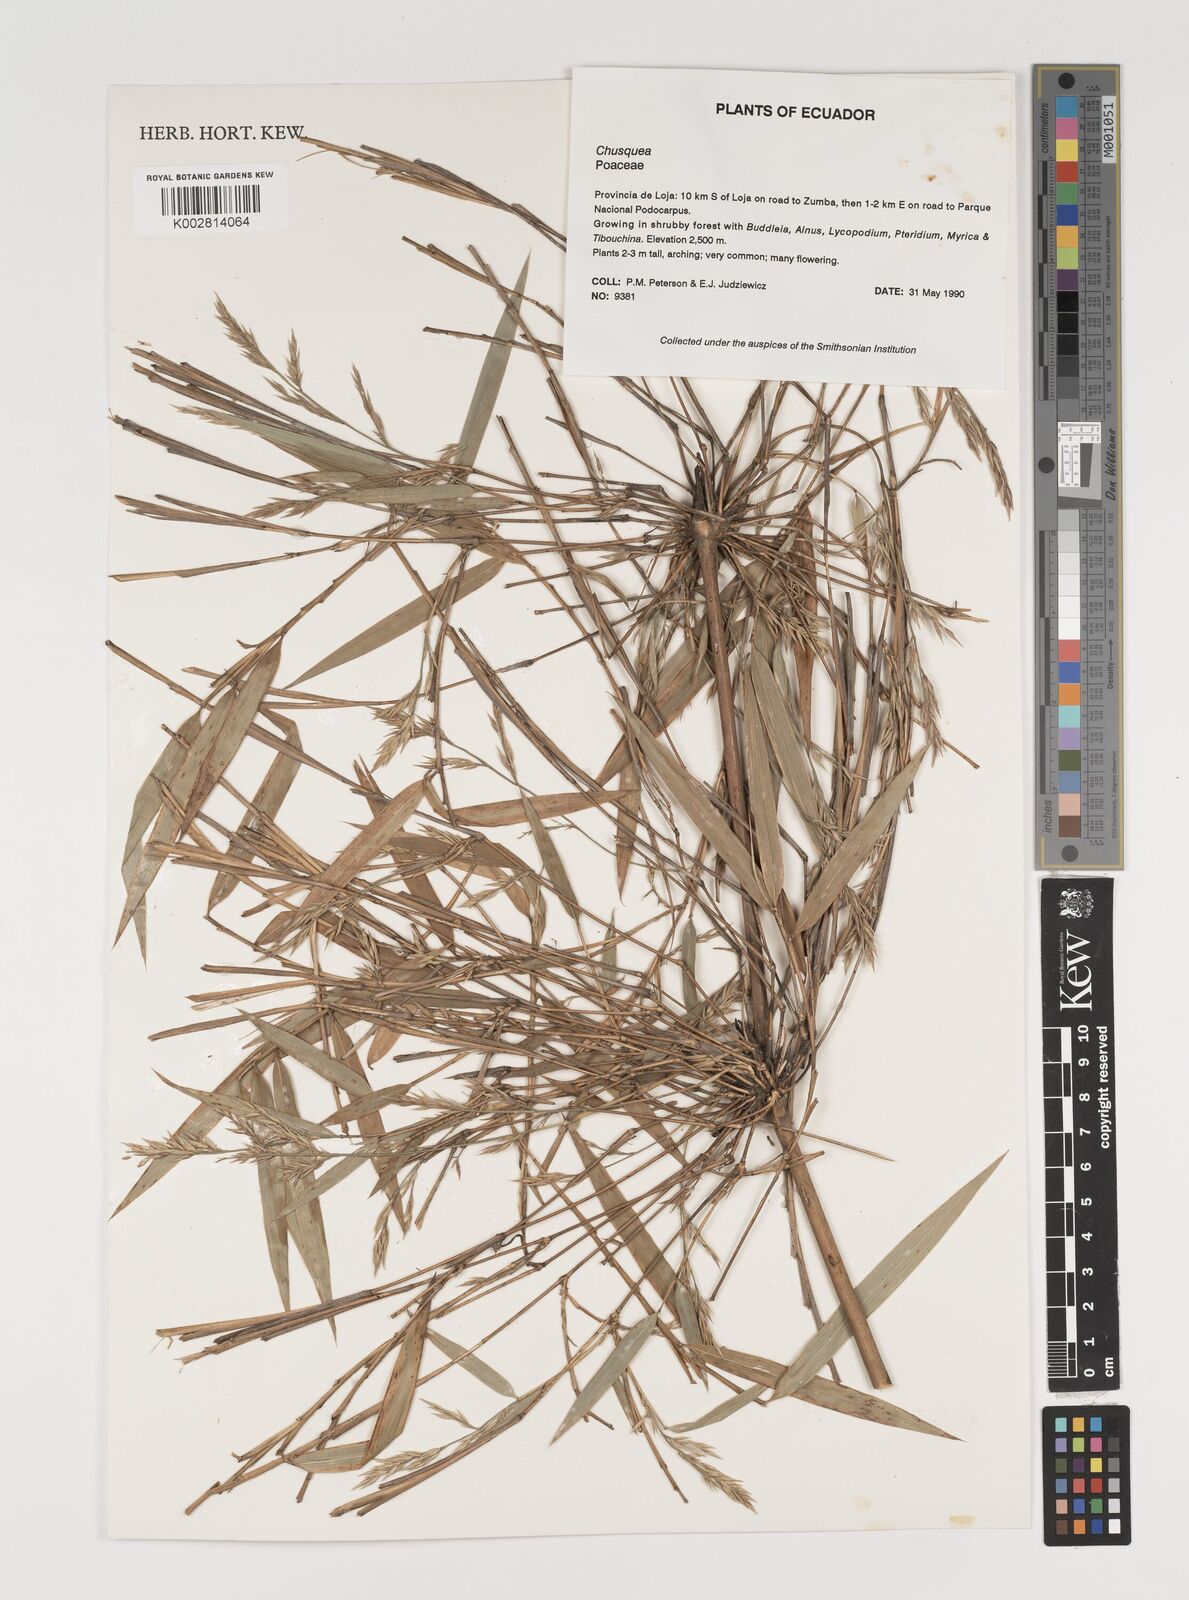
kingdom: Plantae
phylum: Tracheophyta
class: Liliopsida
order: Poales
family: Poaceae
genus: Chusquea
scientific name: Chusquea
